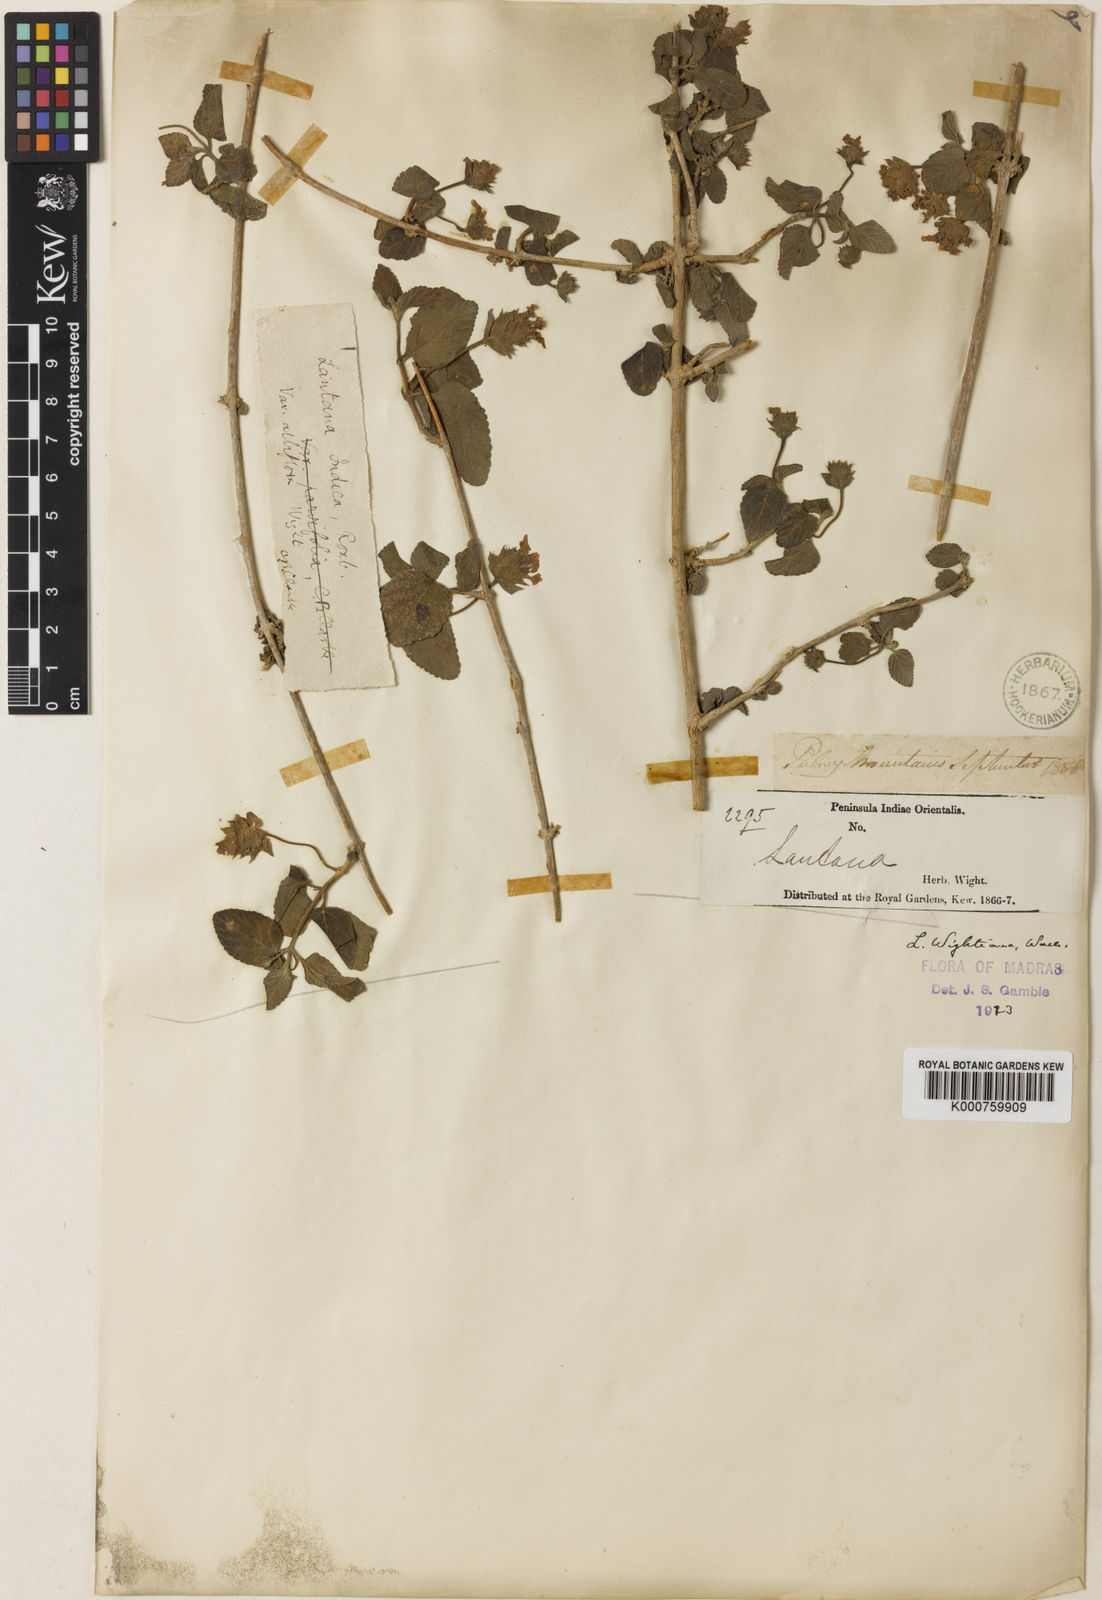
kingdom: Plantae
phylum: Tracheophyta
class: Magnoliopsida
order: Lamiales
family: Verbenaceae
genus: Lantana
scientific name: Lantana indica
